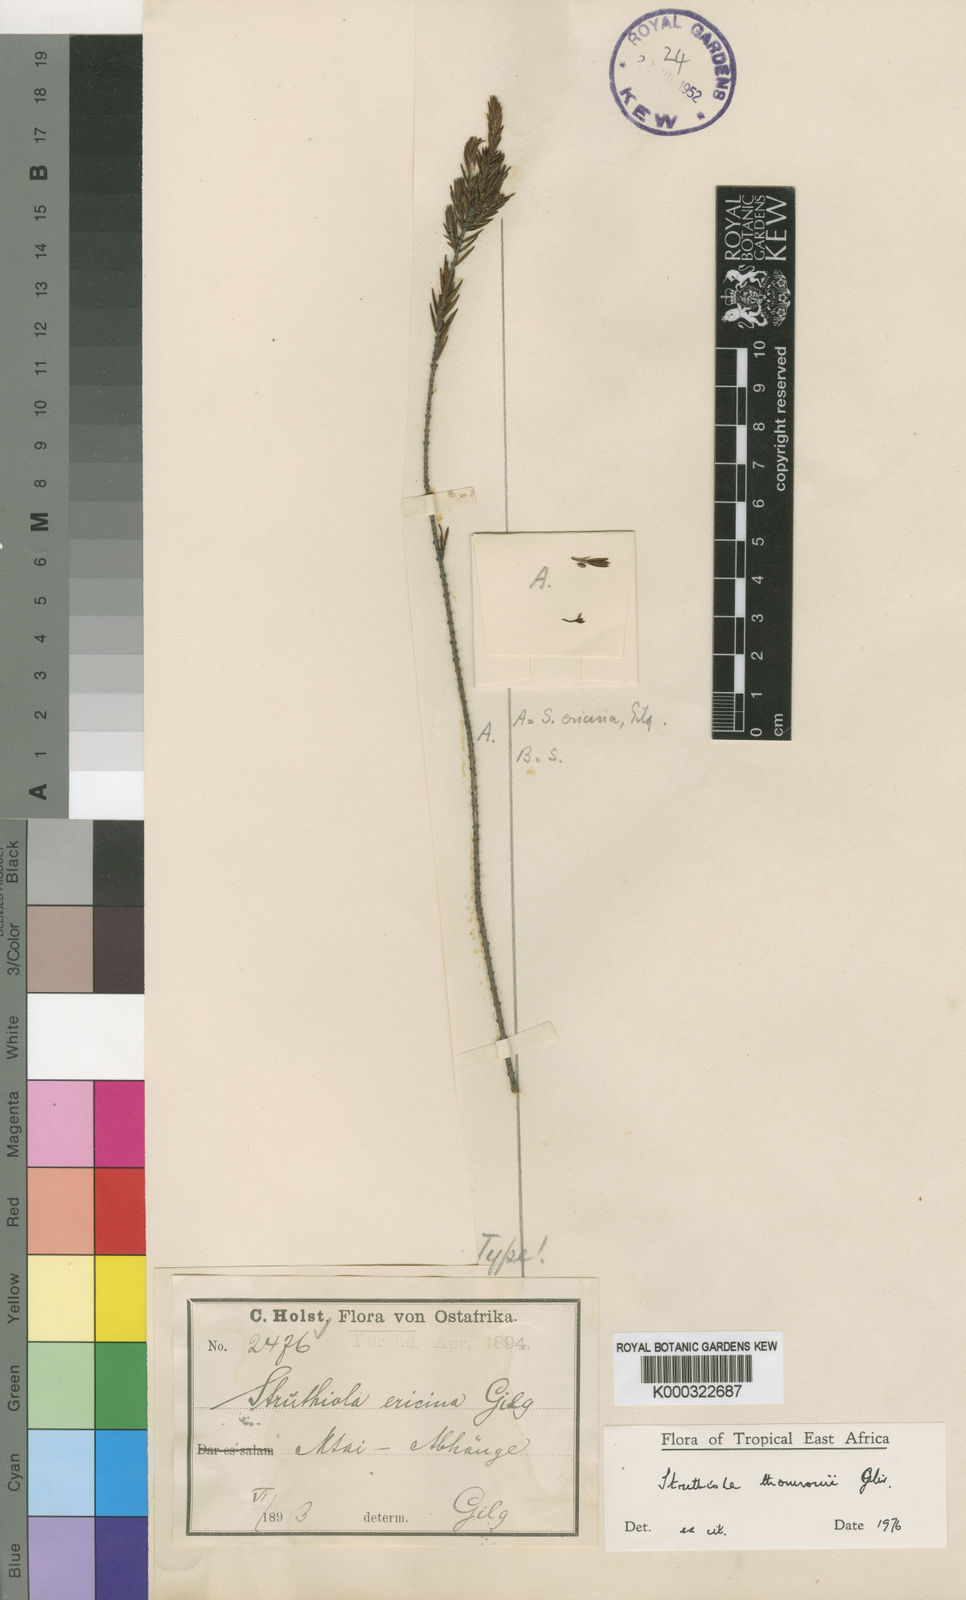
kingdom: Plantae
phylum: Tracheophyta
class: Magnoliopsida
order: Malvales
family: Thymelaeaceae
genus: Struthiola
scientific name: Struthiola thomsonii
